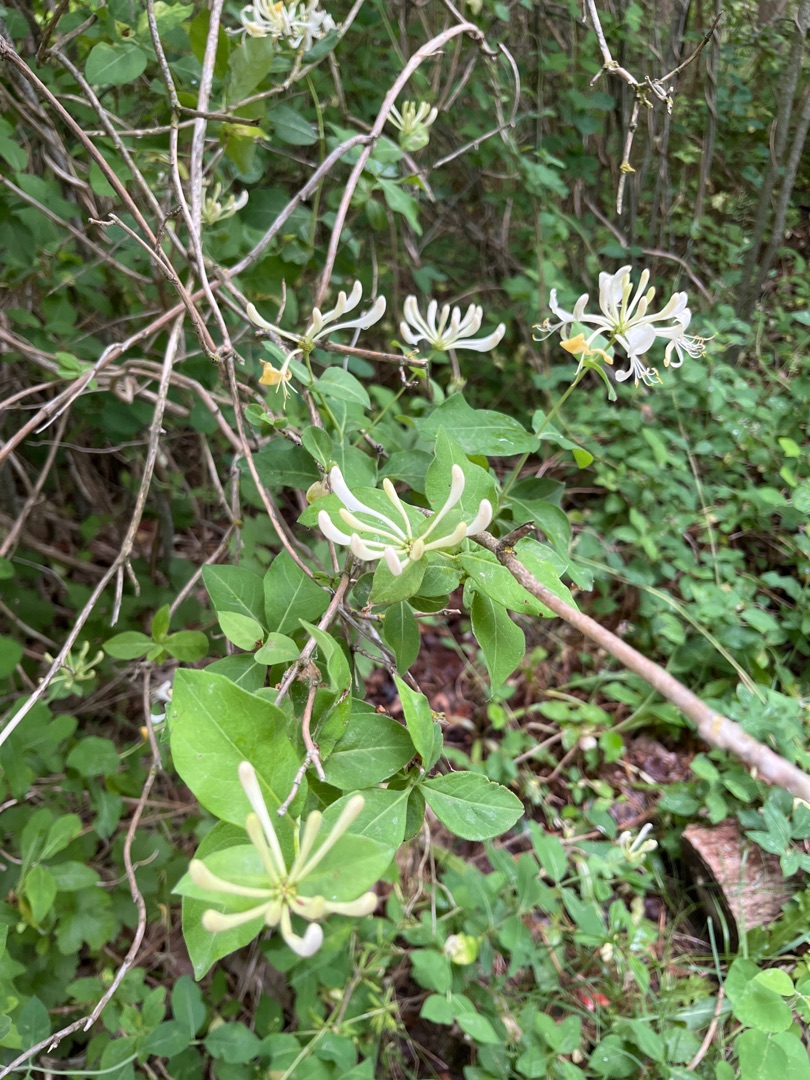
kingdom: Plantae
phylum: Tracheophyta
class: Magnoliopsida
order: Dipsacales
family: Caprifoliaceae
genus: Lonicera
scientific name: Lonicera periclymenum
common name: Almindelig gedeblad
